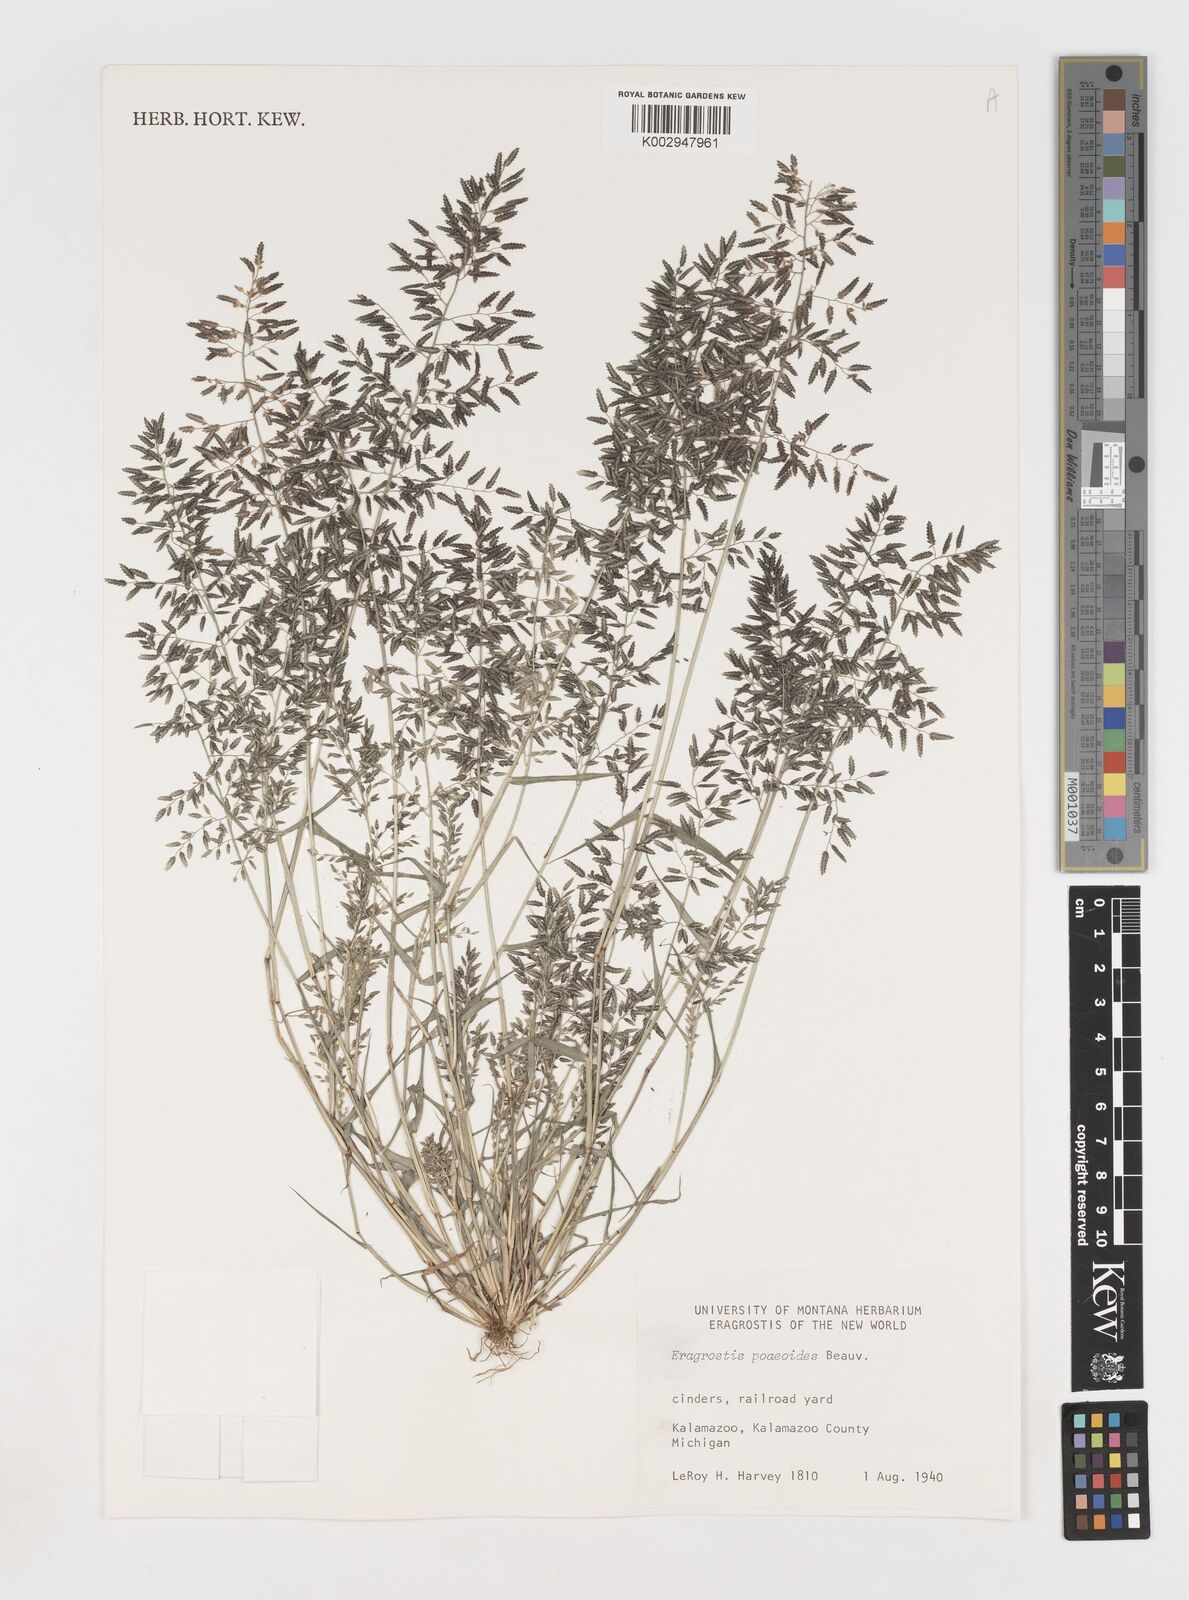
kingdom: Plantae
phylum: Tracheophyta
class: Liliopsida
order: Poales
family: Poaceae
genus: Eragrostis
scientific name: Eragrostis
